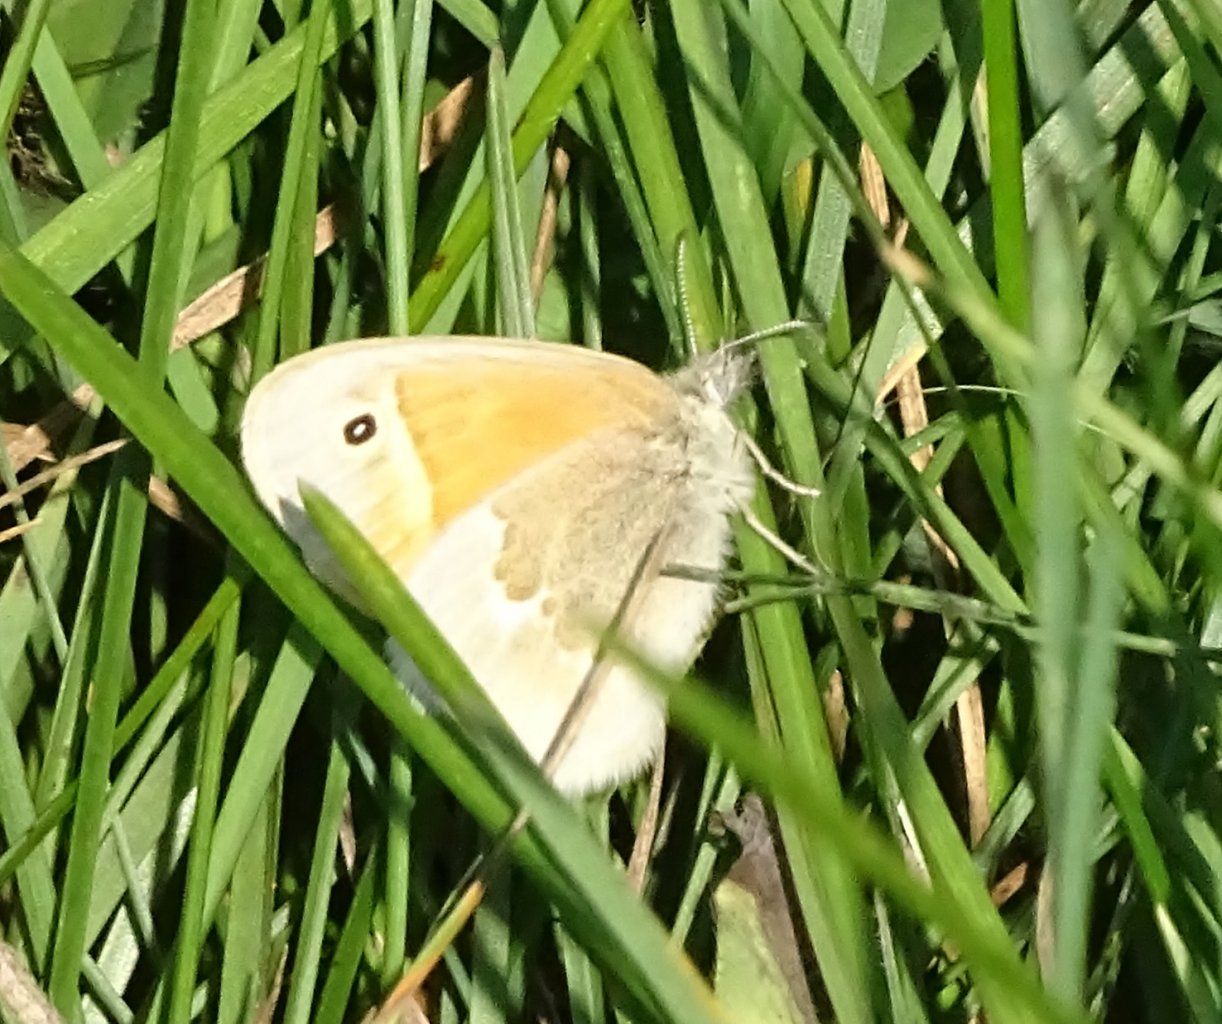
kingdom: Animalia
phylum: Arthropoda
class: Insecta
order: Lepidoptera
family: Nymphalidae
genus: Coenonympha
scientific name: Coenonympha tullia
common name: Large Heath
